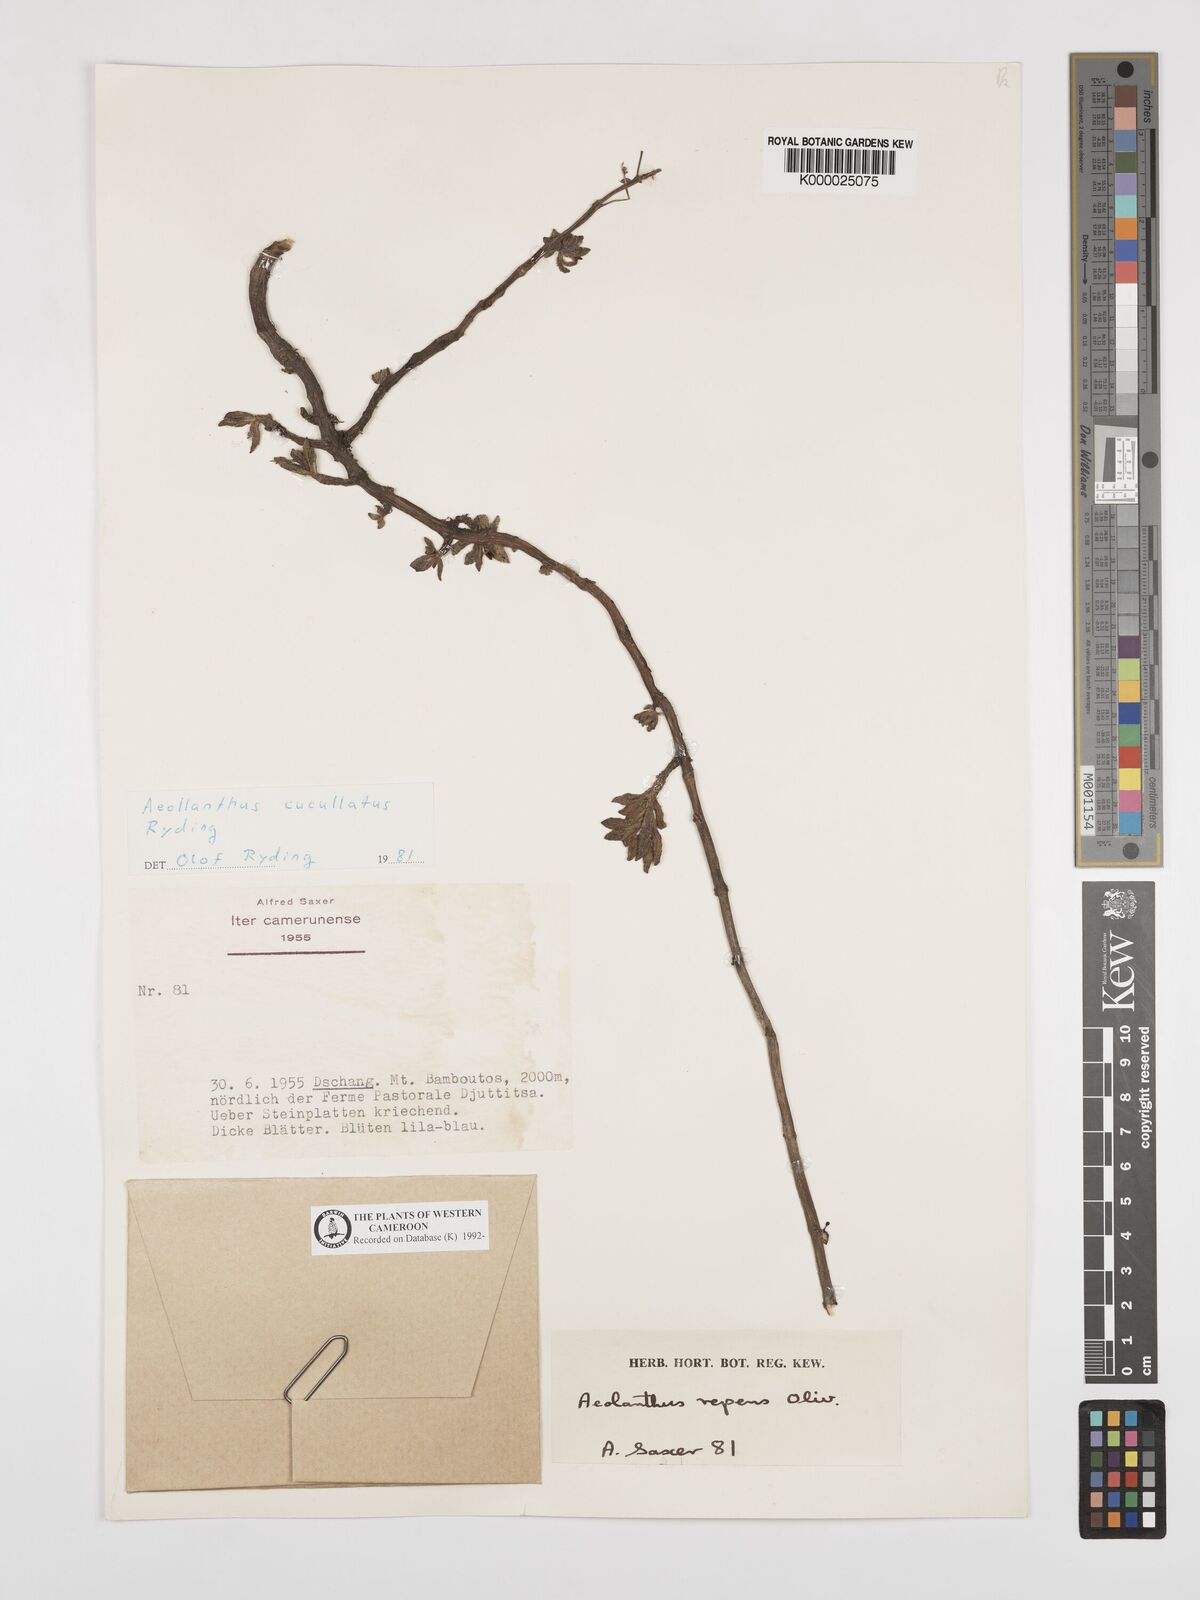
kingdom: Plantae
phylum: Tracheophyta
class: Magnoliopsida
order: Lamiales
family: Lamiaceae
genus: Aeollanthus
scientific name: Aeollanthus cucullatus
